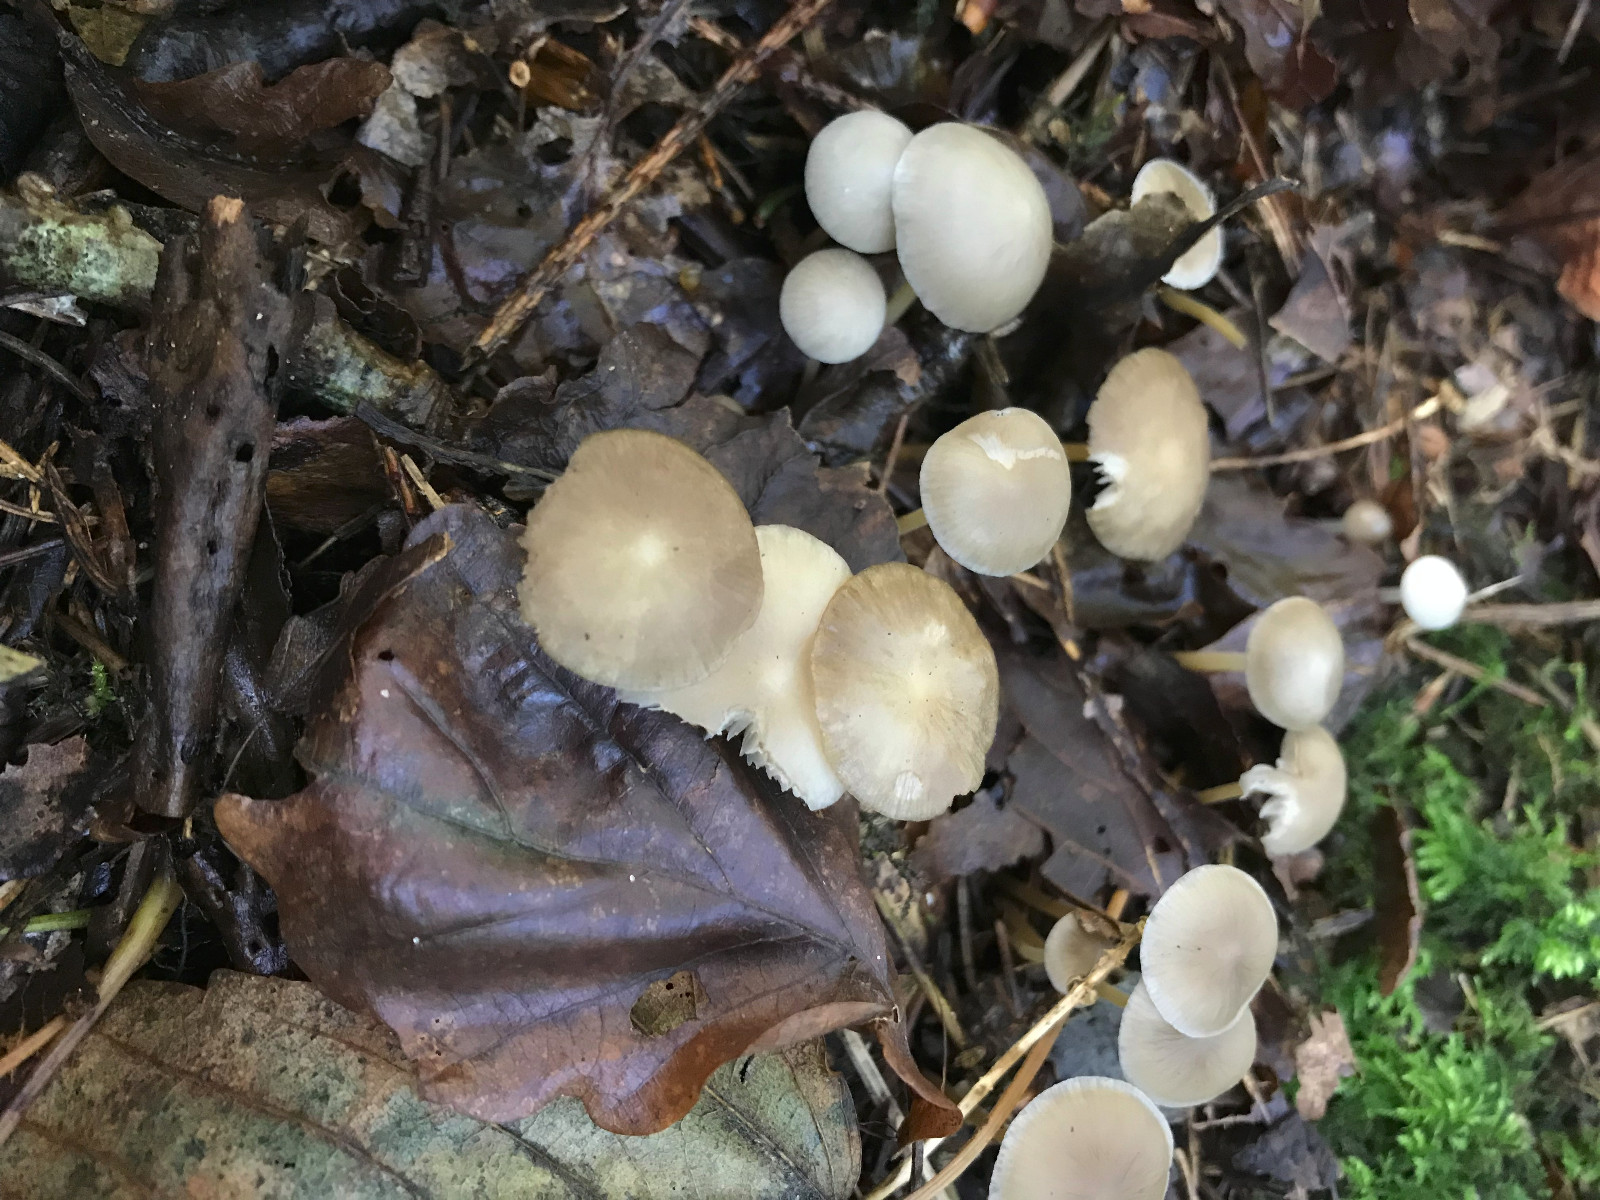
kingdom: Fungi
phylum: Basidiomycota
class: Agaricomycetes
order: Agaricales
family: Physalacriaceae
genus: Strobilurus
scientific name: Strobilurus esculentus
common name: gran-koglehat
